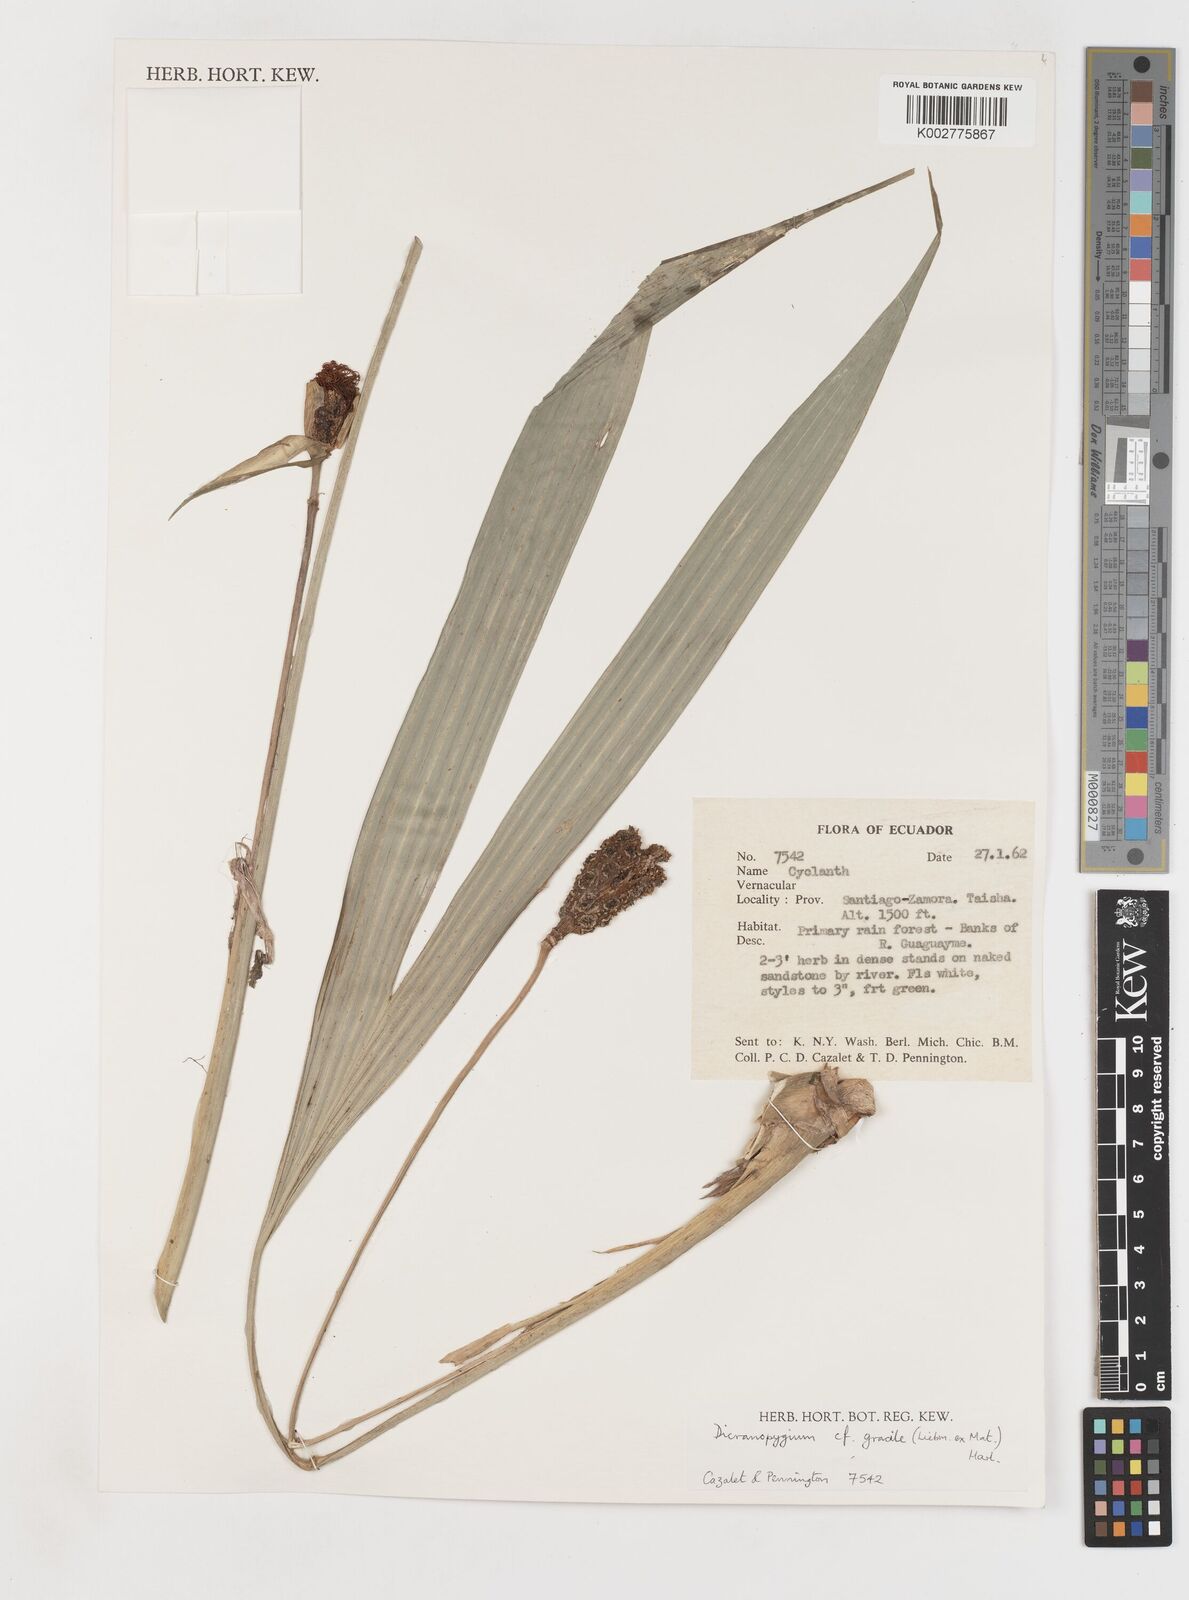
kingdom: Plantae
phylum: Tracheophyta
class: Liliopsida
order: Pandanales
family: Cyclanthaceae
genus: Dicranopygium
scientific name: Dicranopygium gracile
